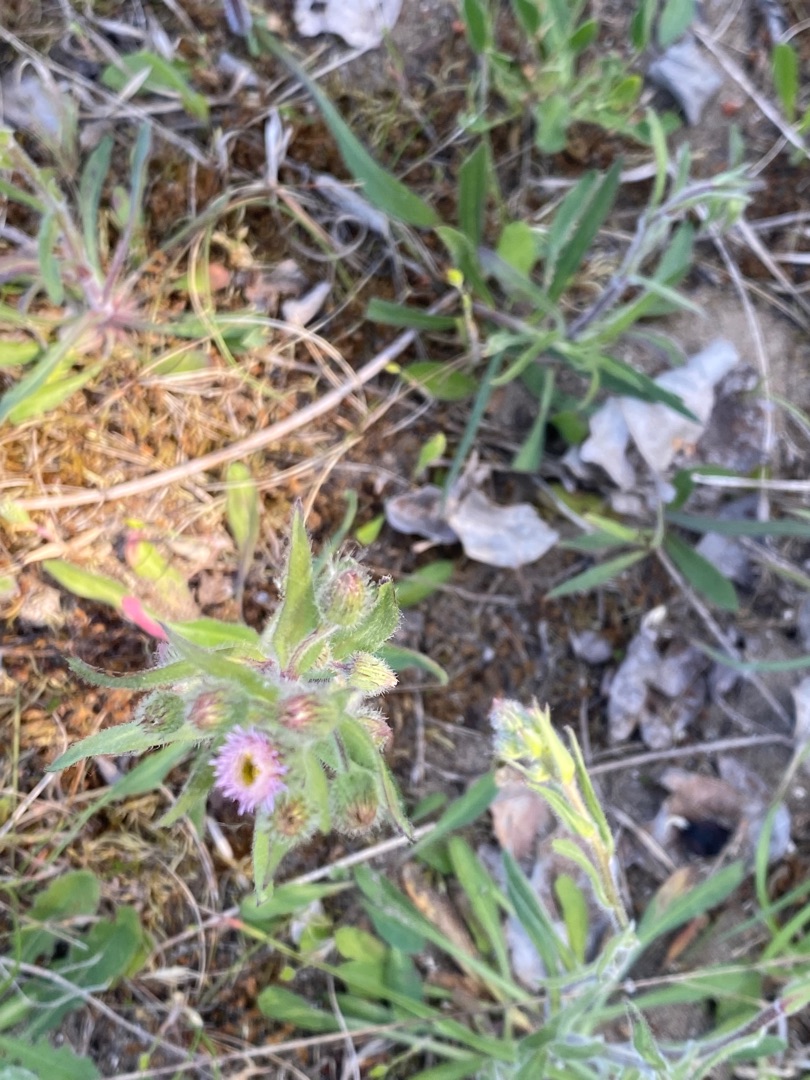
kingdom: Plantae
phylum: Tracheophyta
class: Magnoliopsida
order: Asterales
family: Asteraceae
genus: Erigeron
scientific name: Erigeron acris
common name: Bitter bakkestjerne
